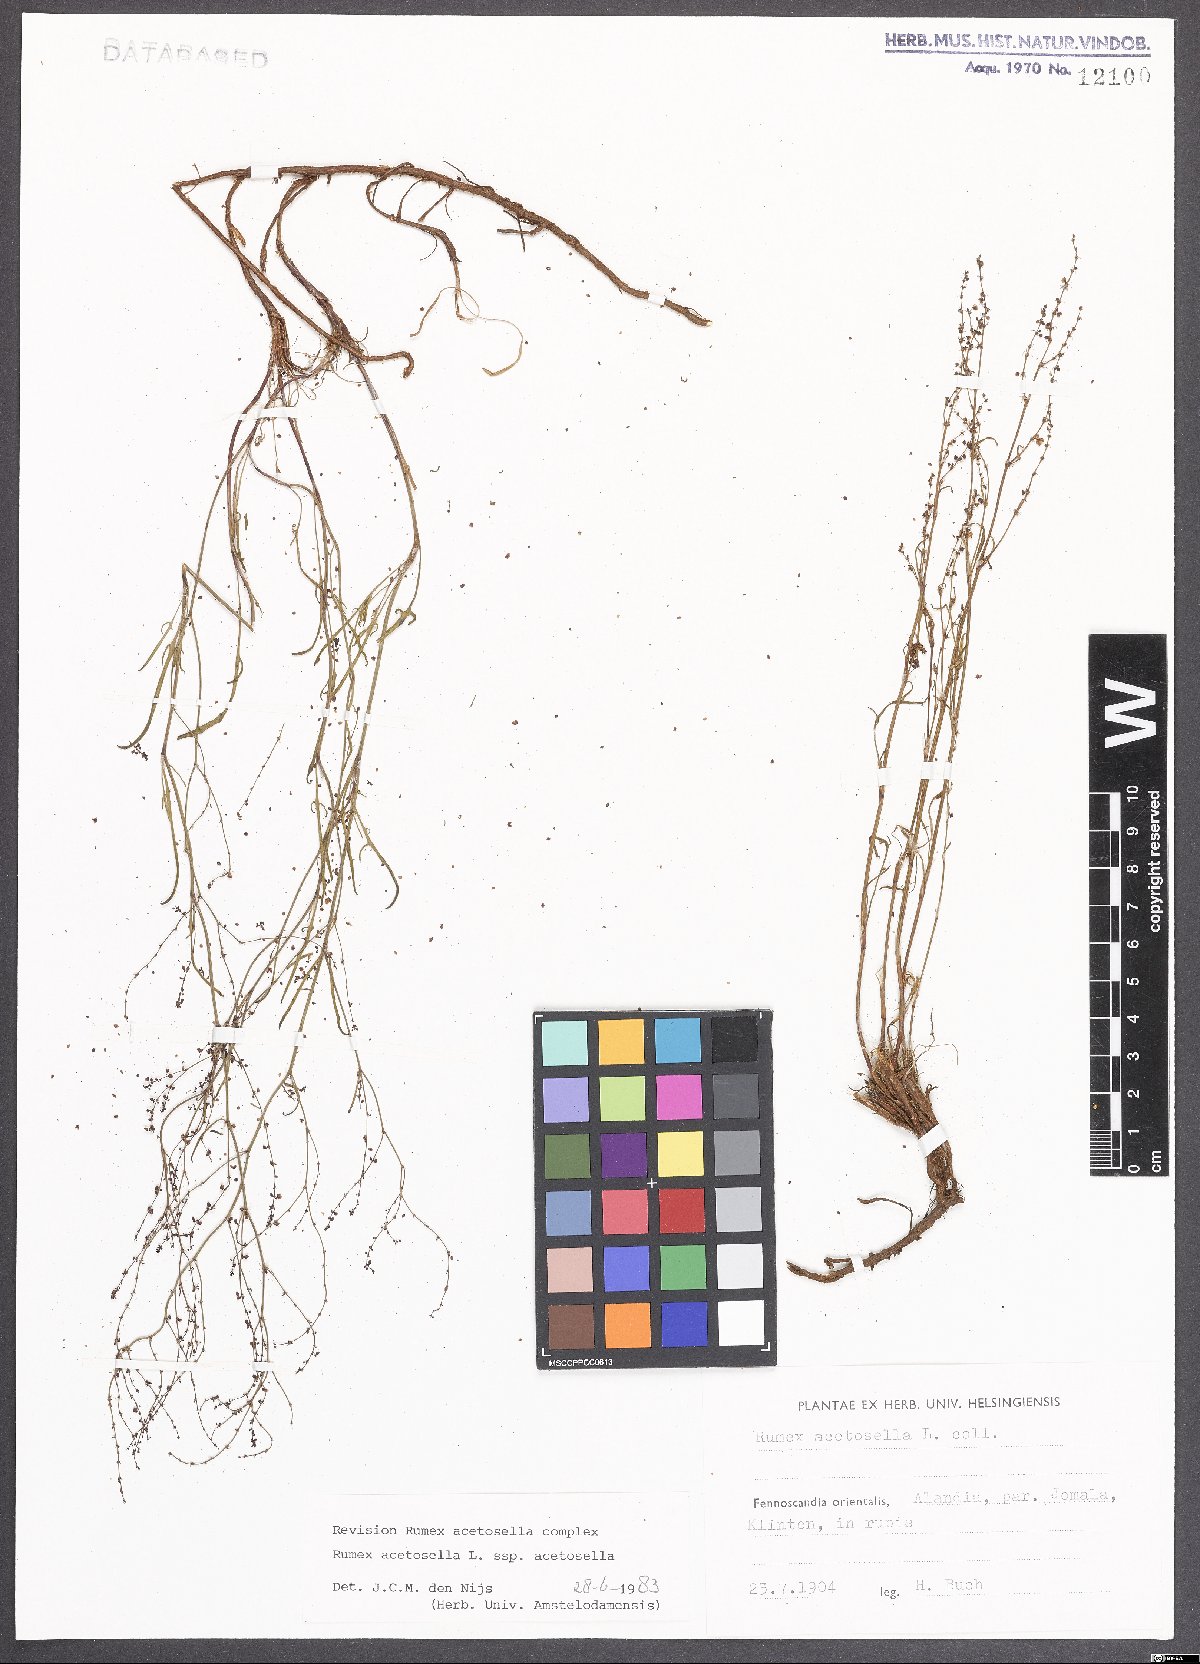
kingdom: Plantae
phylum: Tracheophyta
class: Magnoliopsida
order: Caryophyllales
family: Polygonaceae
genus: Rumex
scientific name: Rumex acetosella
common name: Common sheep sorrel
